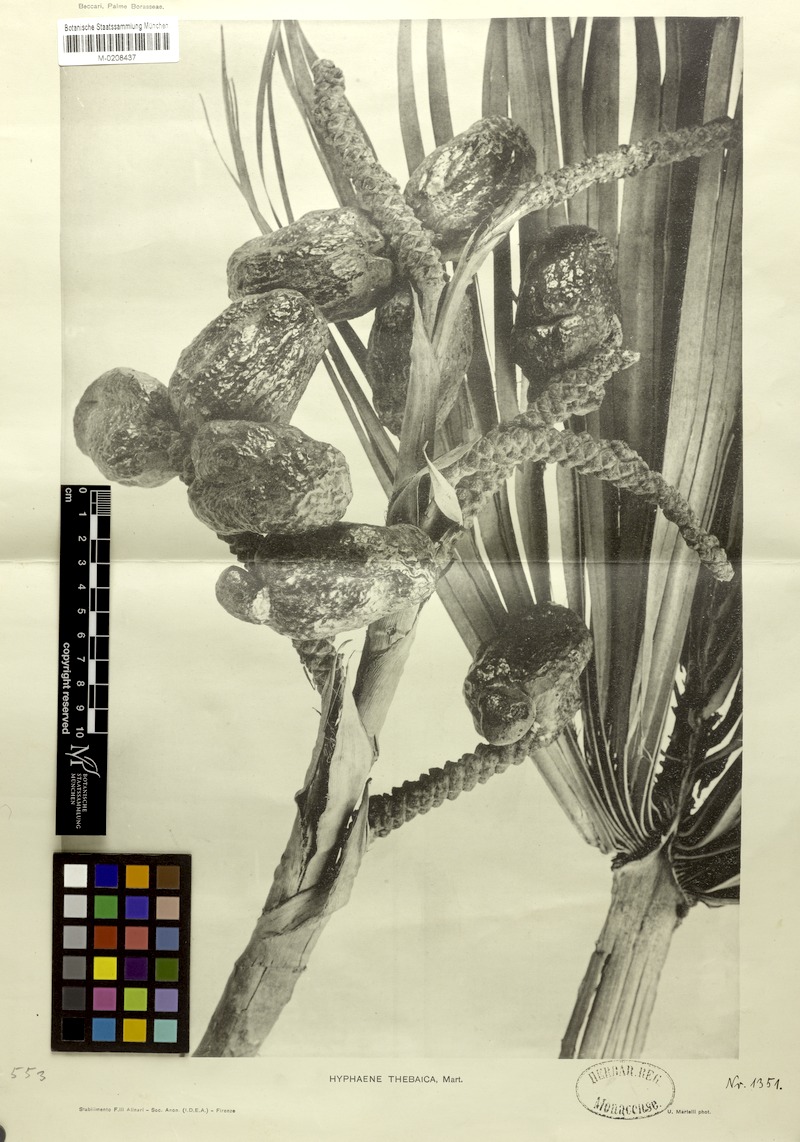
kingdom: Plantae
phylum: Tracheophyta
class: Liliopsida
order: Arecales
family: Arecaceae
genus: Hyphaene
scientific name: Hyphaene thebaica
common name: Doum palm
